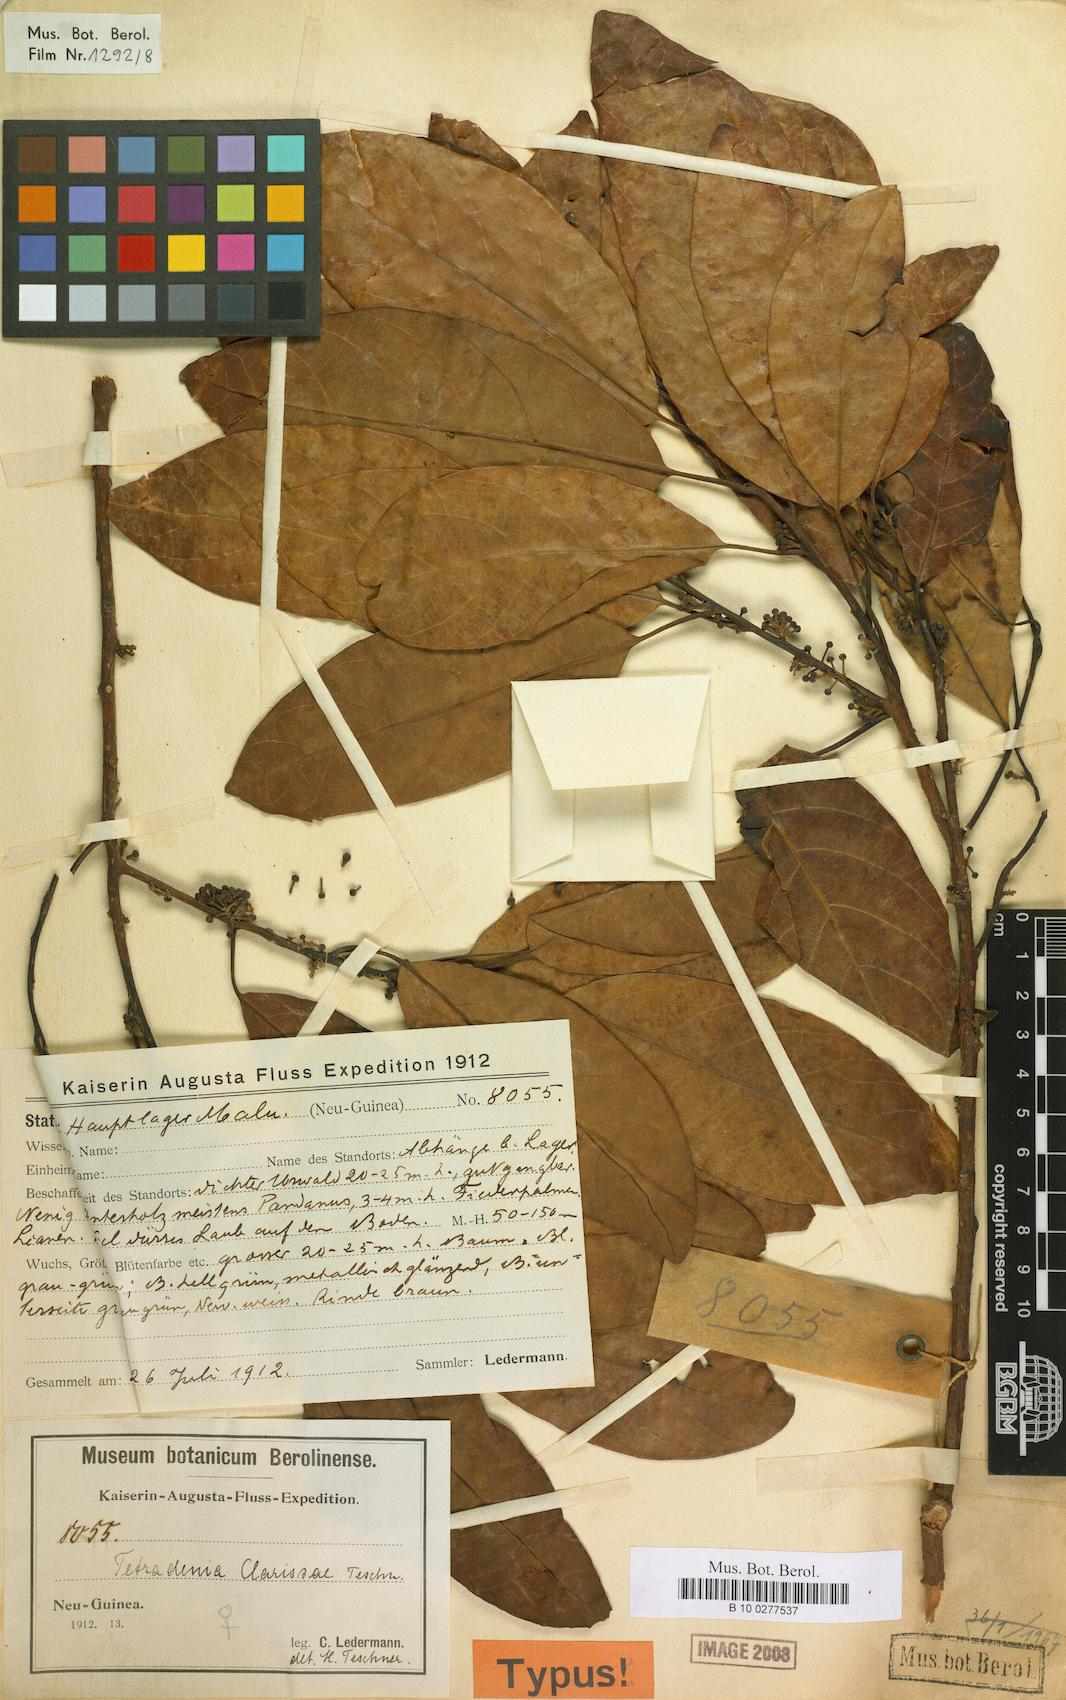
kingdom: Plantae
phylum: Tracheophyta
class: Magnoliopsida
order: Laurales
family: Lauraceae
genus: Litsea
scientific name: Litsea clarissae
